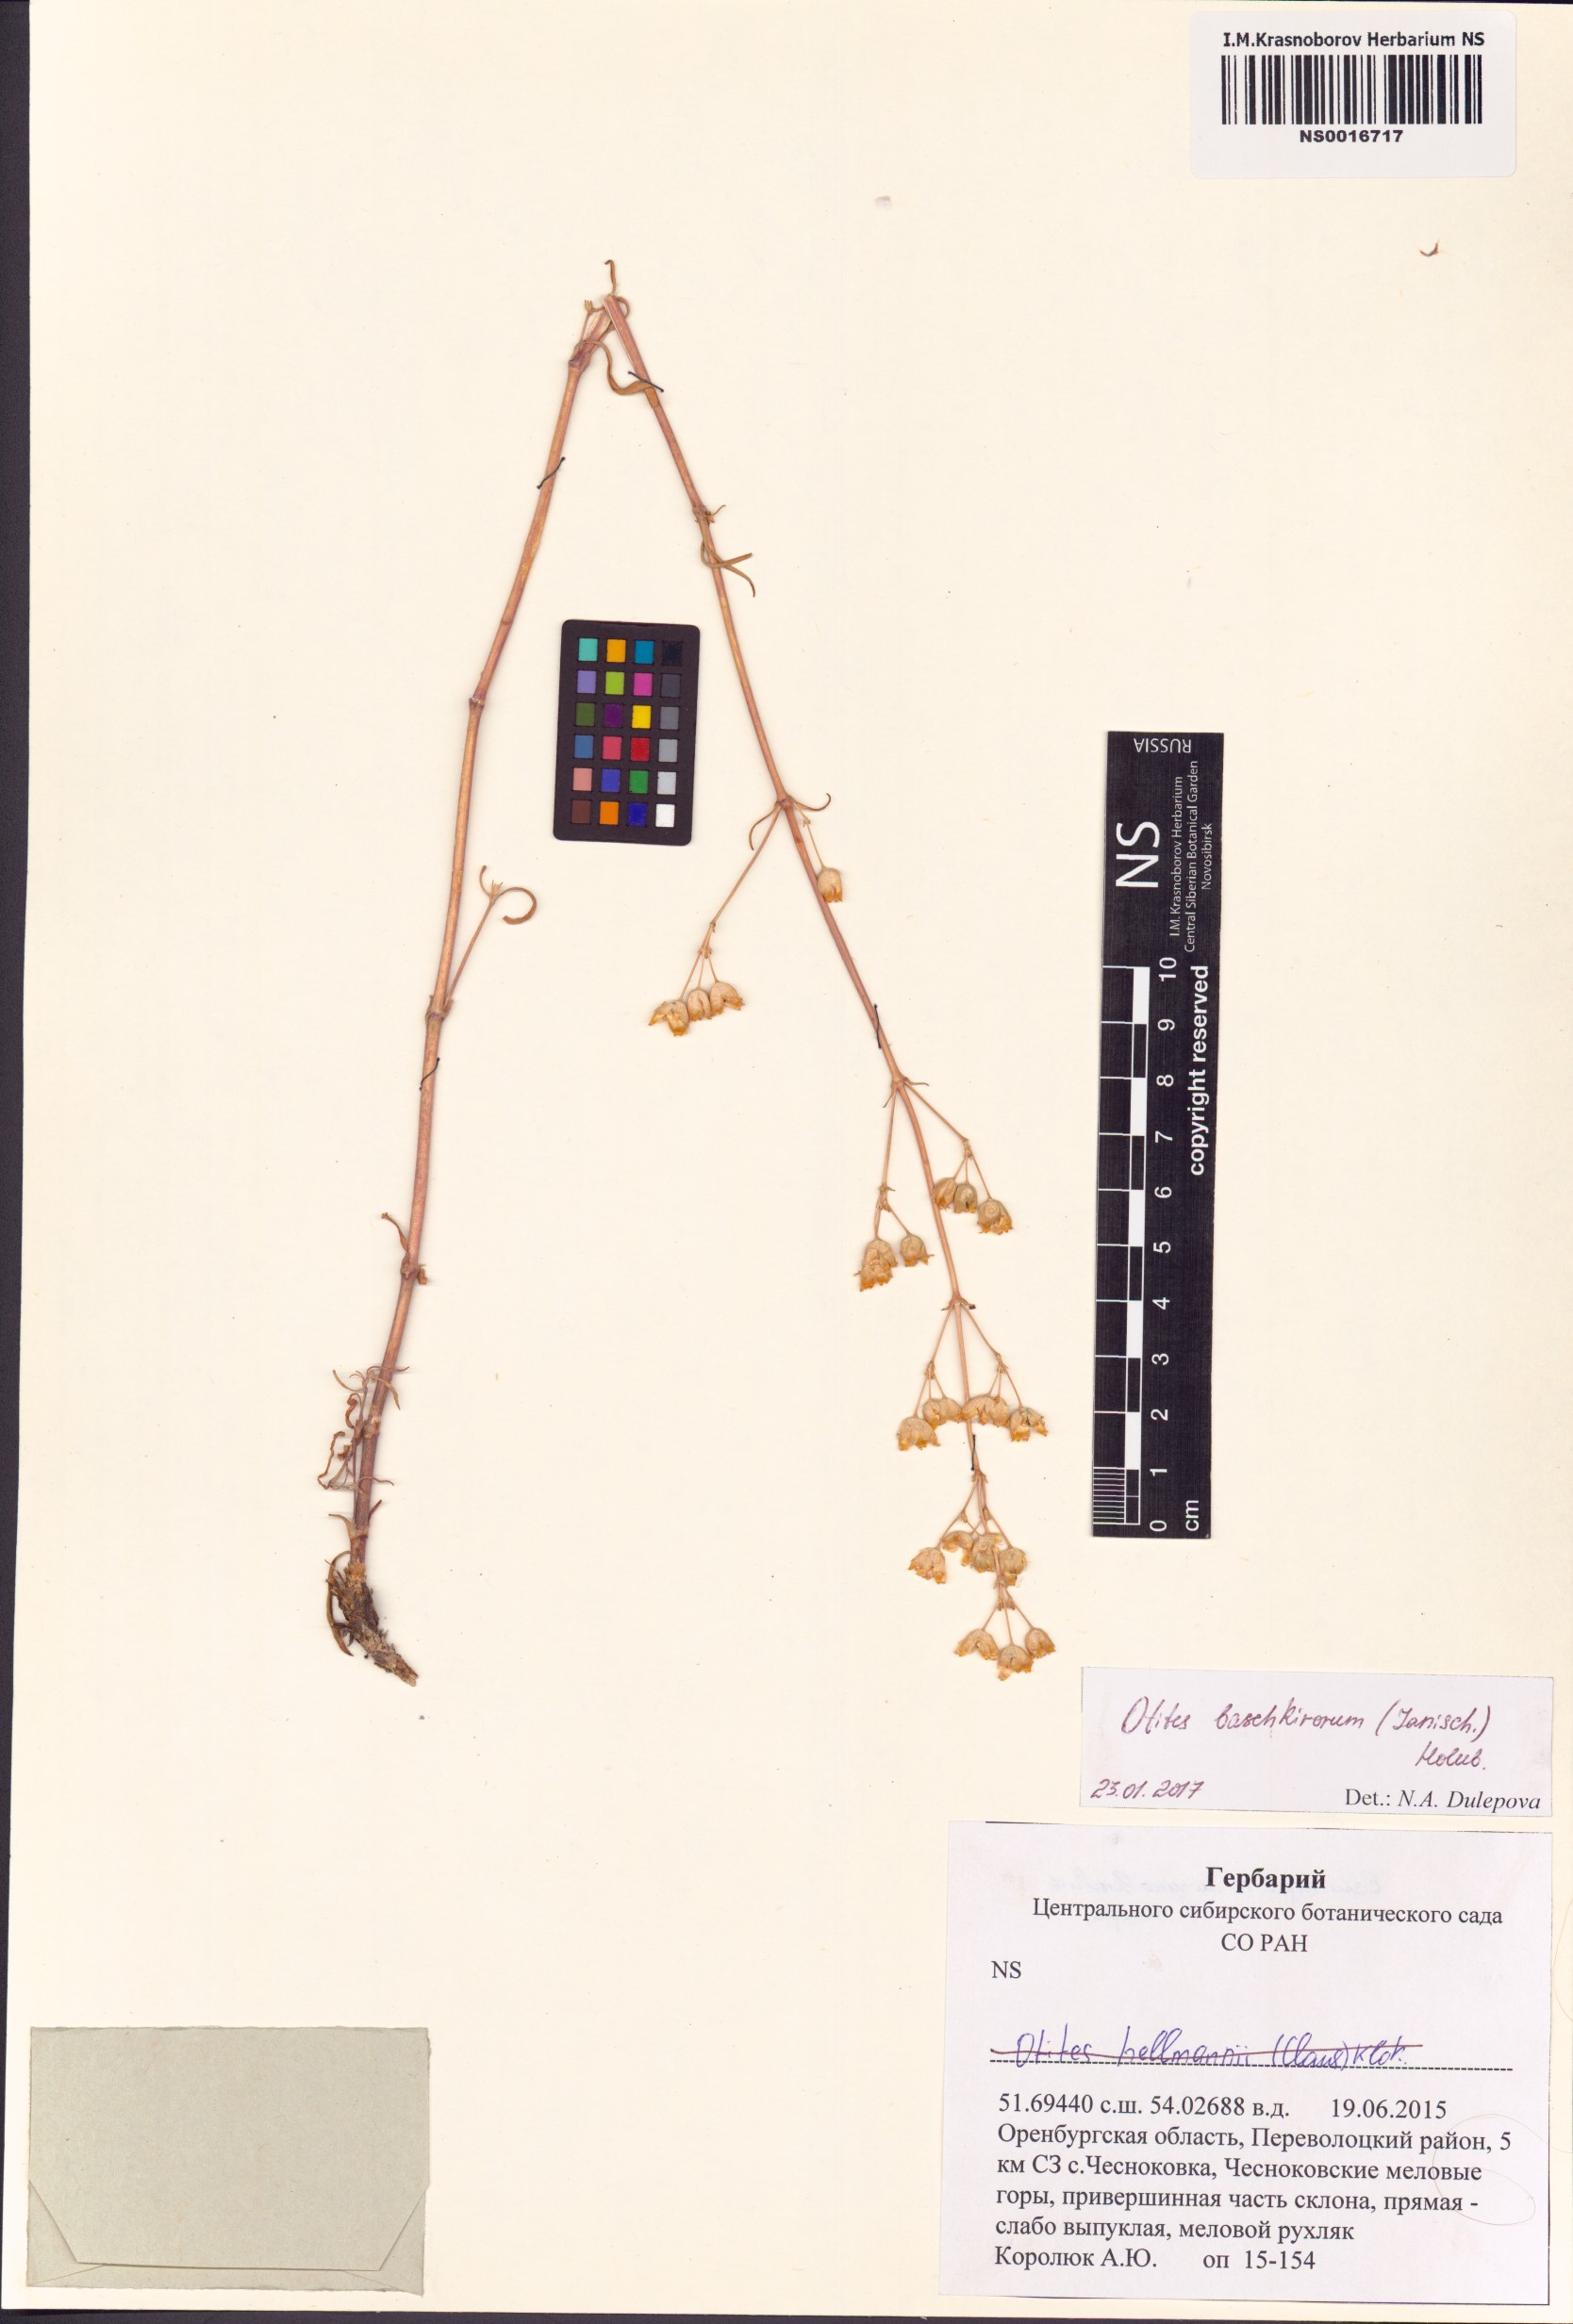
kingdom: Plantae
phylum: Tracheophyta
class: Magnoliopsida
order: Caryophyllales
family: Caryophyllaceae
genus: Silene
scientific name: Silene baschkirorum
